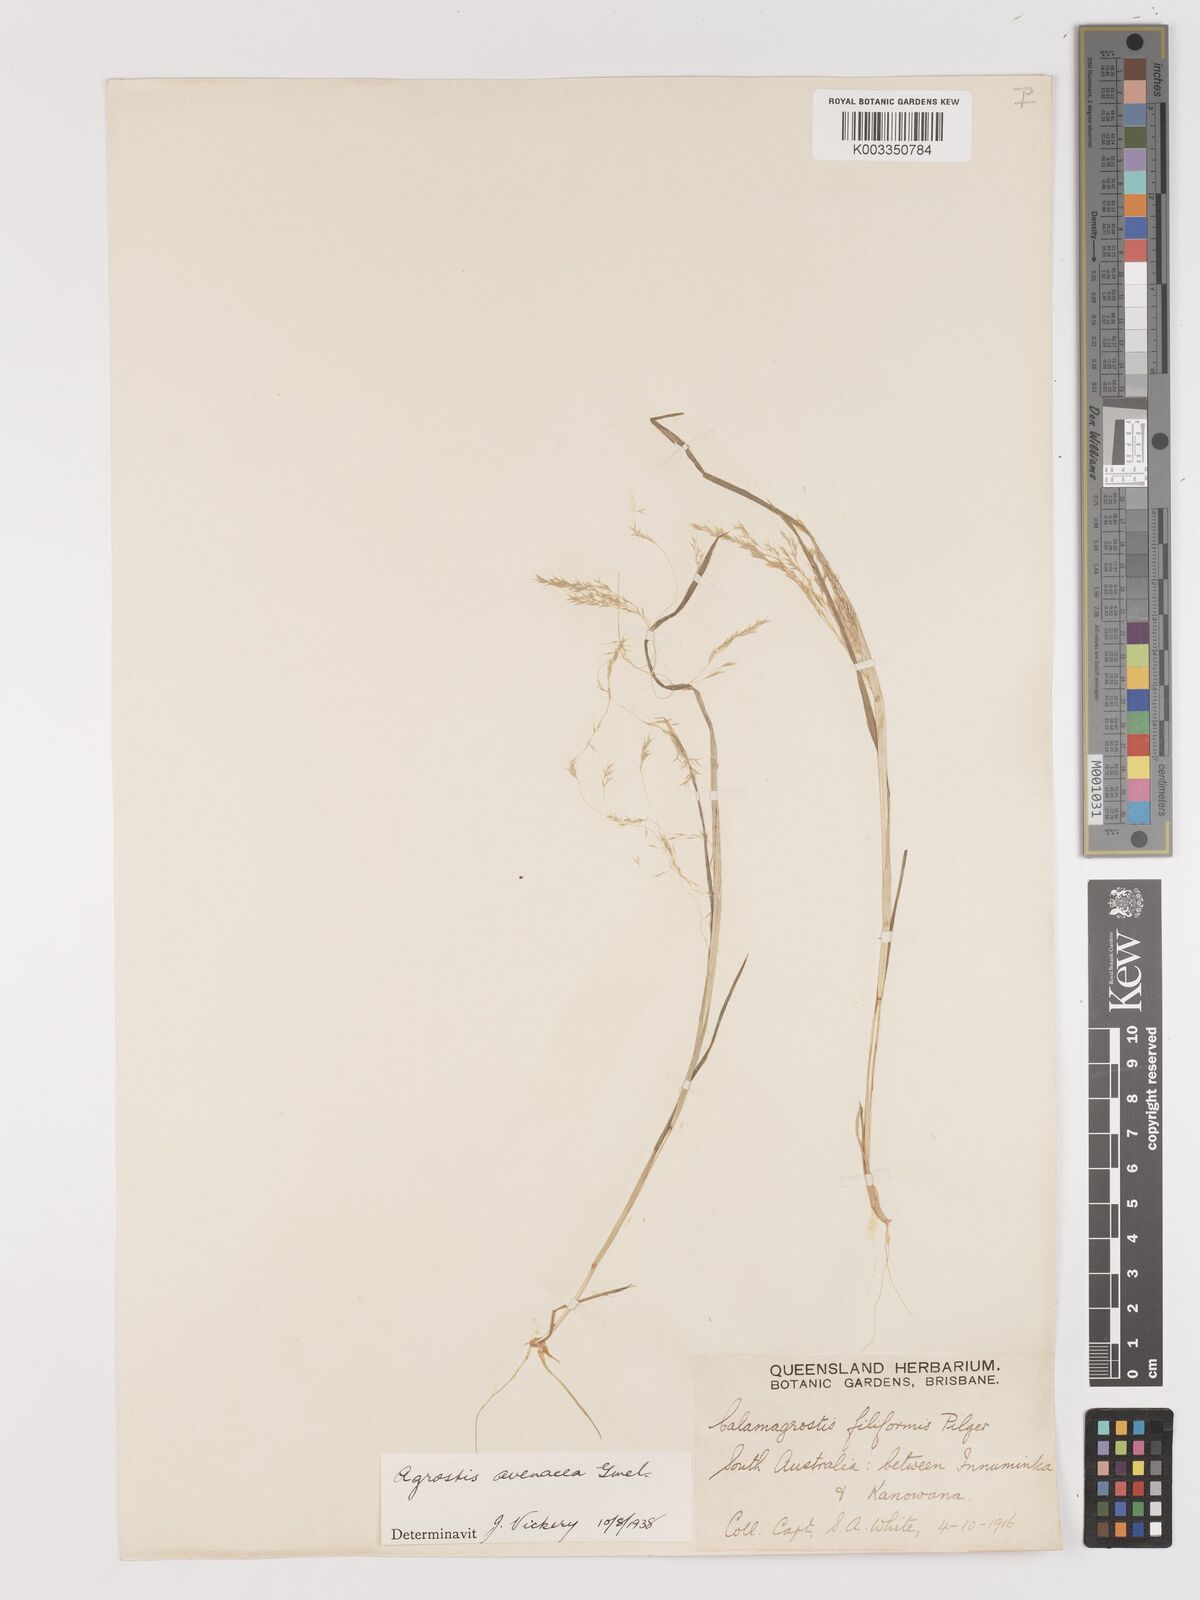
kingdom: Plantae
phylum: Tracheophyta
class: Liliopsida
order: Poales
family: Poaceae
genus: Lachnagrostis
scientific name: Lachnagrostis filiformis
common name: Bentgrass
